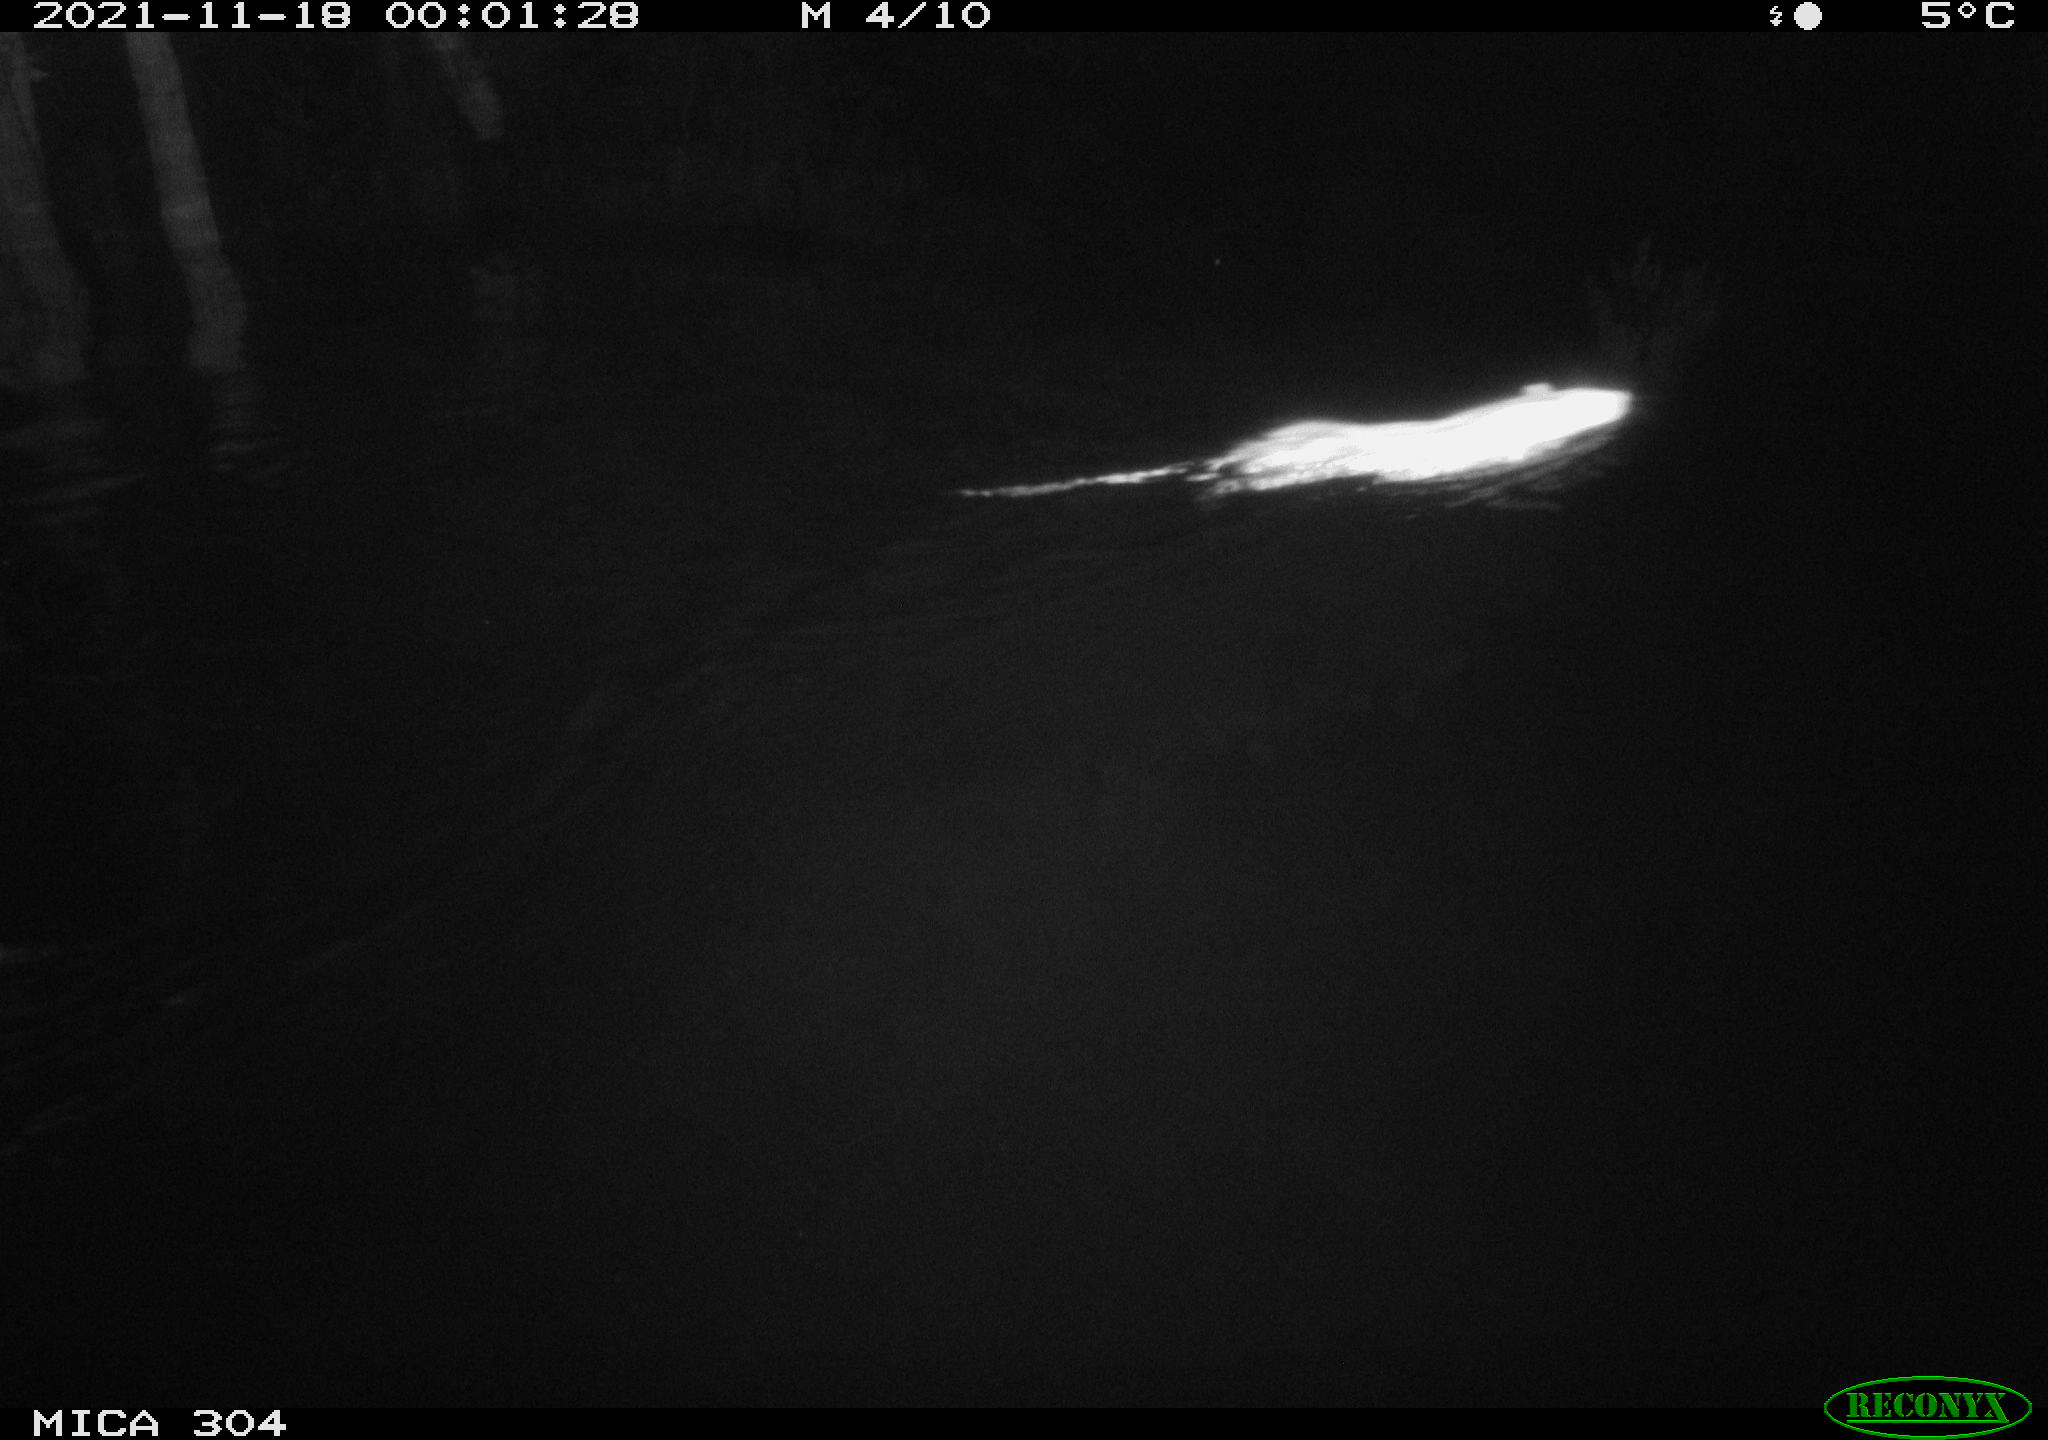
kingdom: Animalia
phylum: Chordata
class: Mammalia
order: Rodentia
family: Muridae
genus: Rattus
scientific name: Rattus norvegicus
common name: Brown rat
